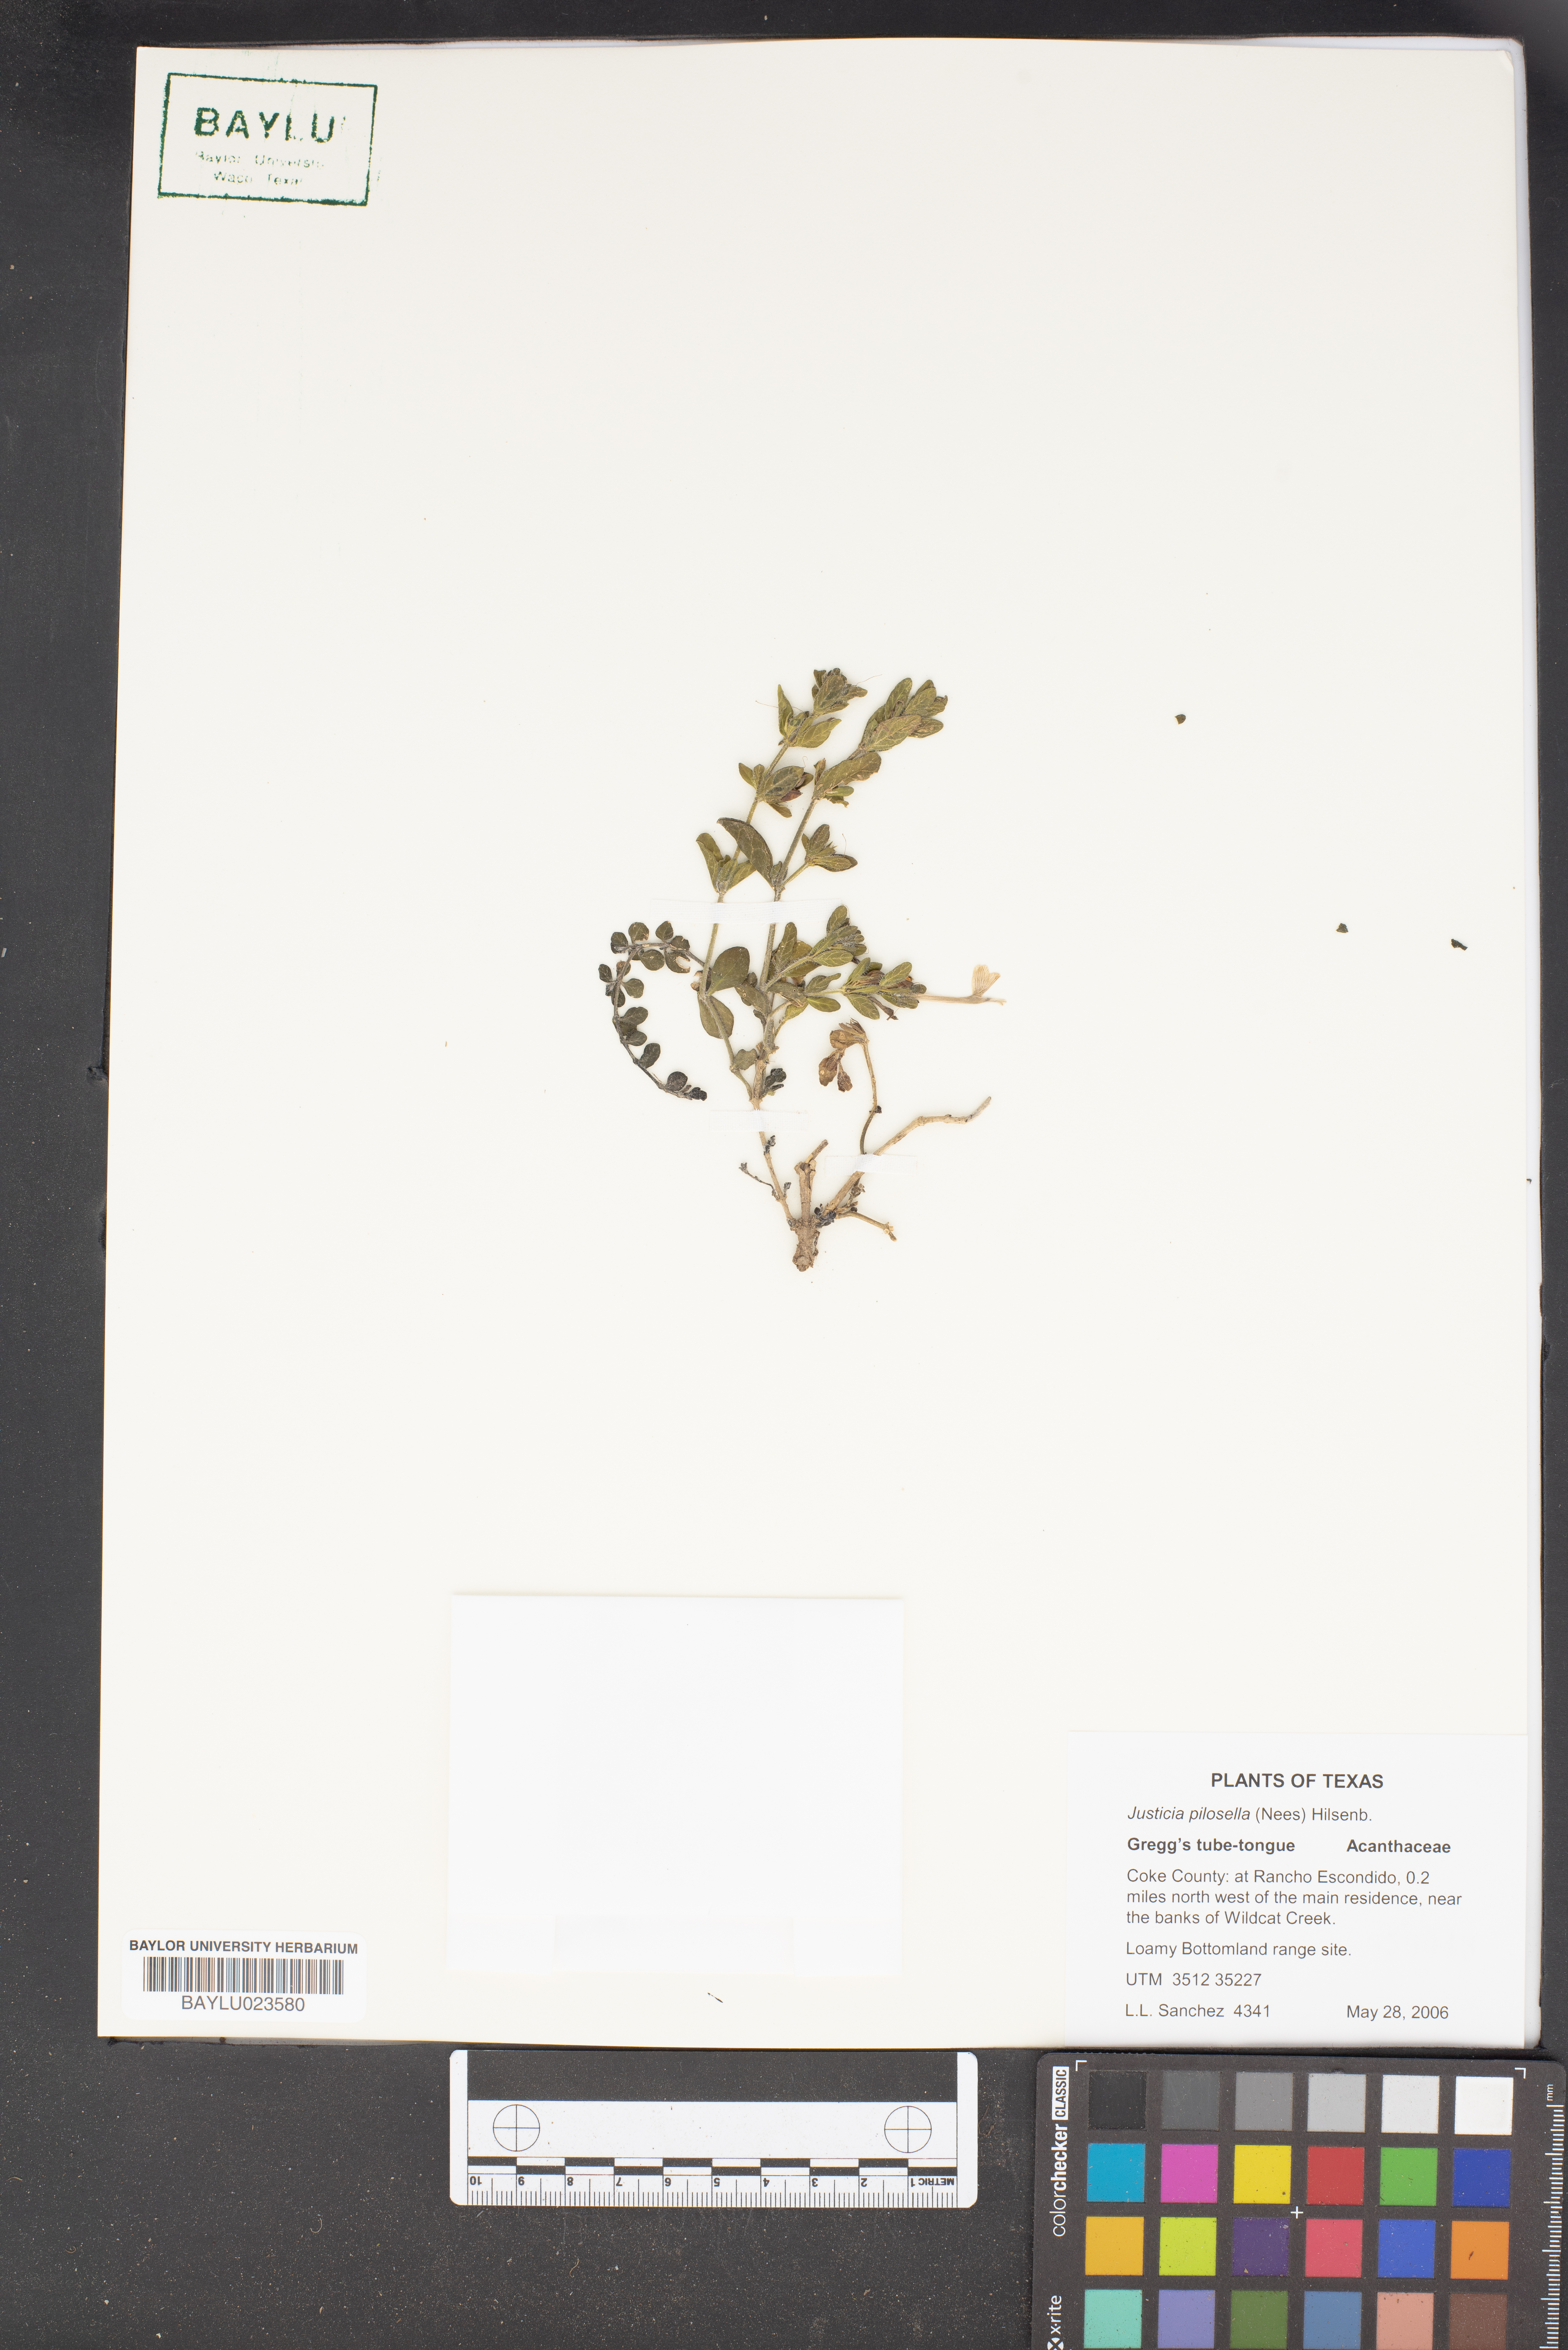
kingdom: Plantae
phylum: Tracheophyta
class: Magnoliopsida
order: Lamiales
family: Acanthaceae
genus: Justicia
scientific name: Justicia pilosella
